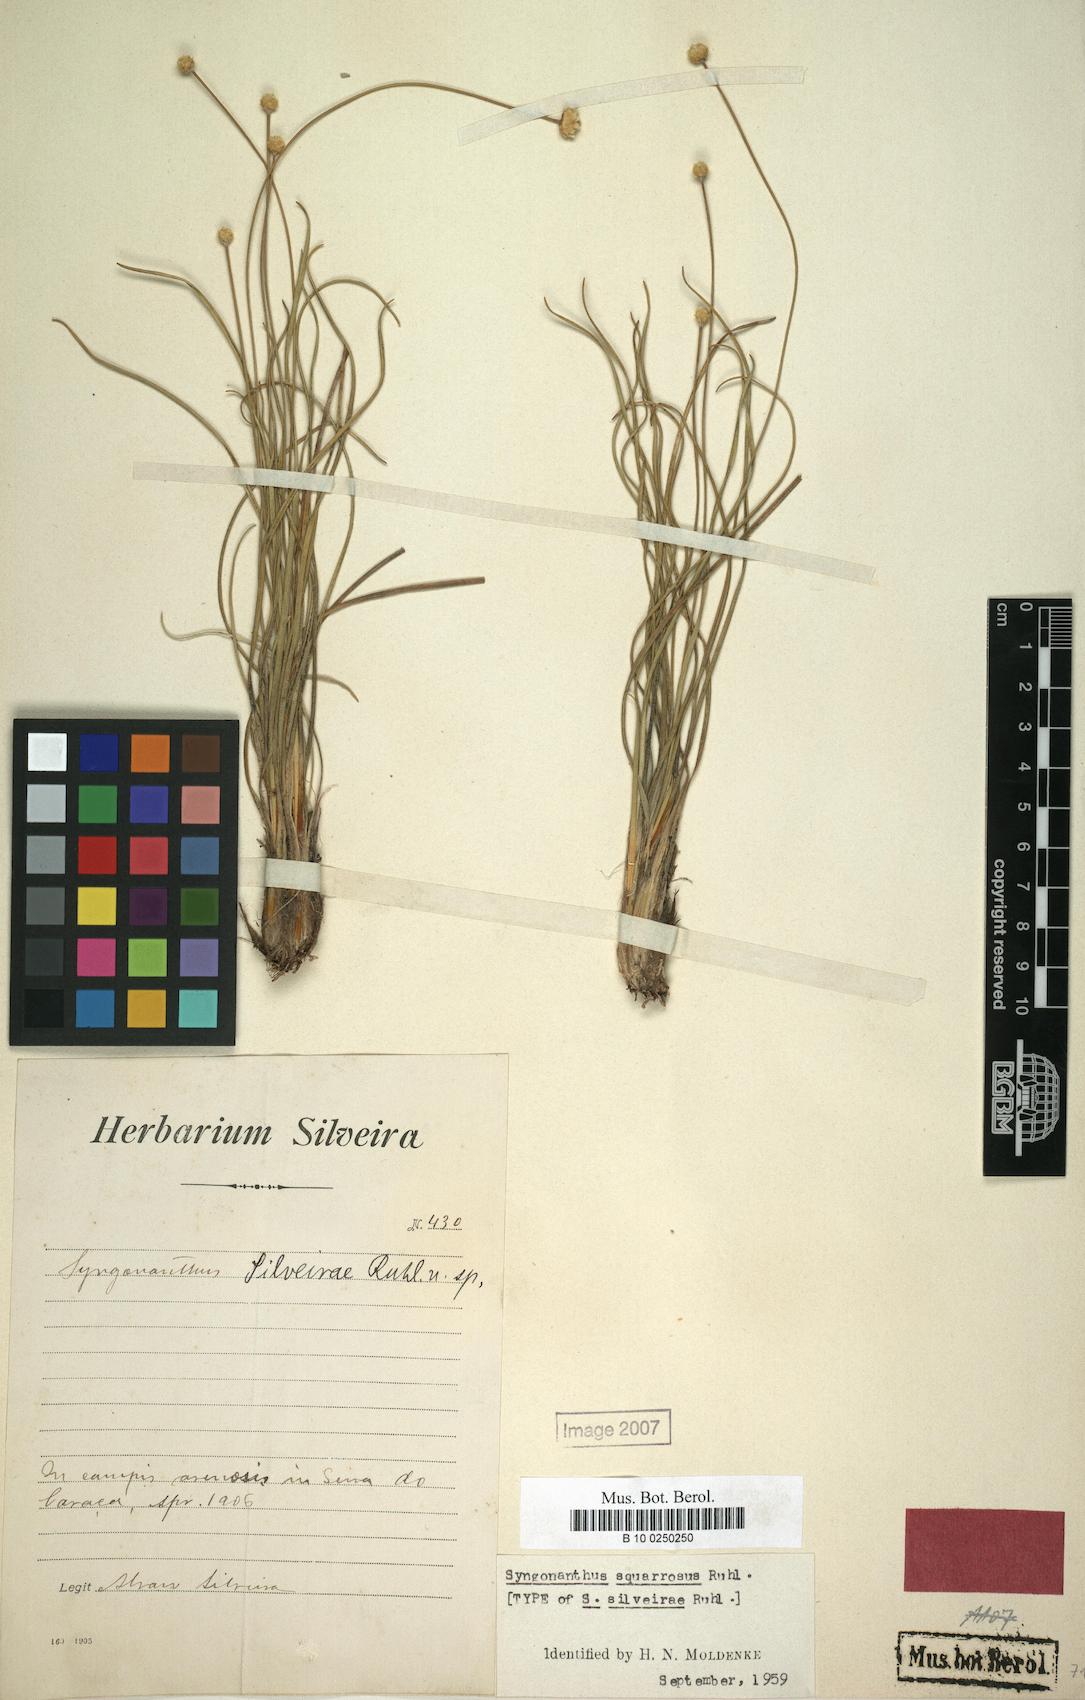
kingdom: Plantae
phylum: Tracheophyta
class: Liliopsida
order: Poales
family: Eriocaulaceae
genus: Comanthera
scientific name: Comanthera centauroides
